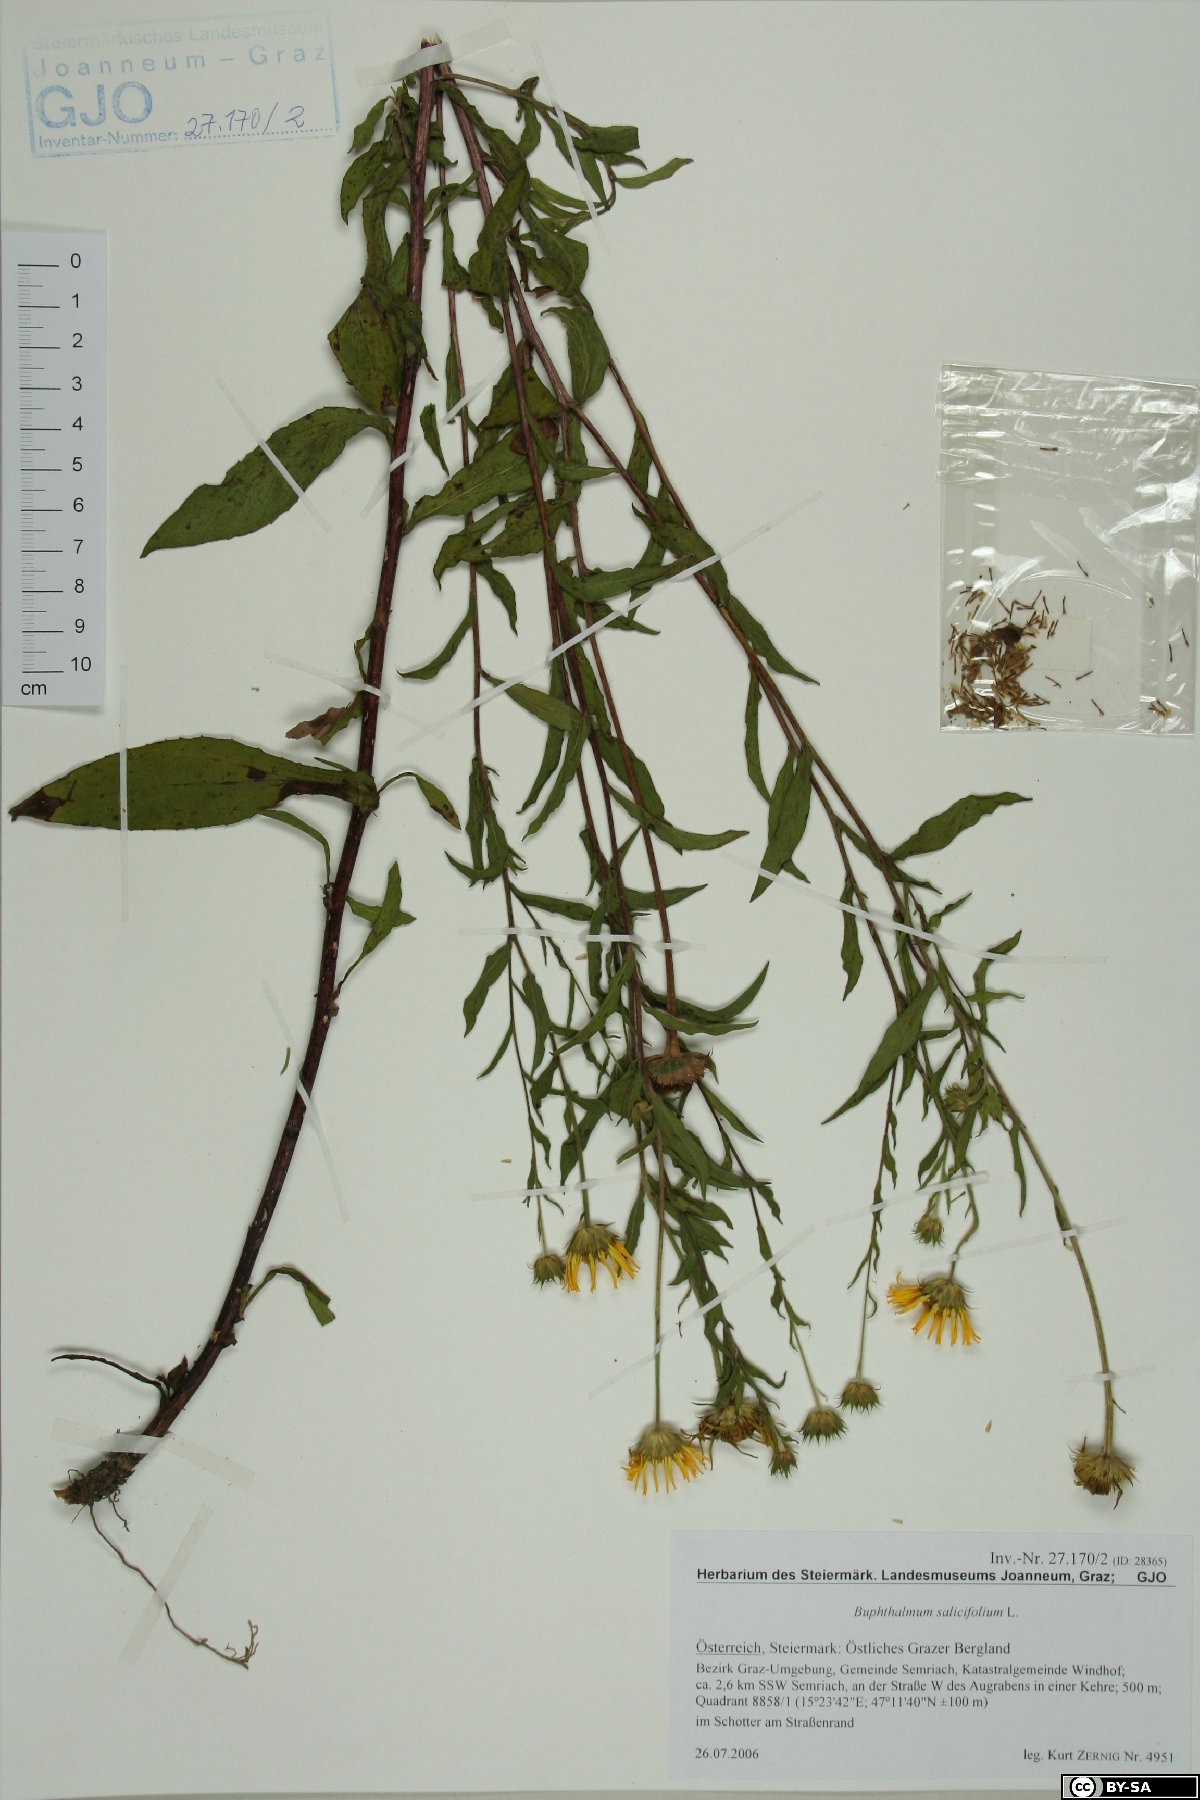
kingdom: Plantae
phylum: Tracheophyta
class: Magnoliopsida
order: Asterales
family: Asteraceae
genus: Buphthalmum
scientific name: Buphthalmum salicifolium
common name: Willow-leaved yellow-oxeye
